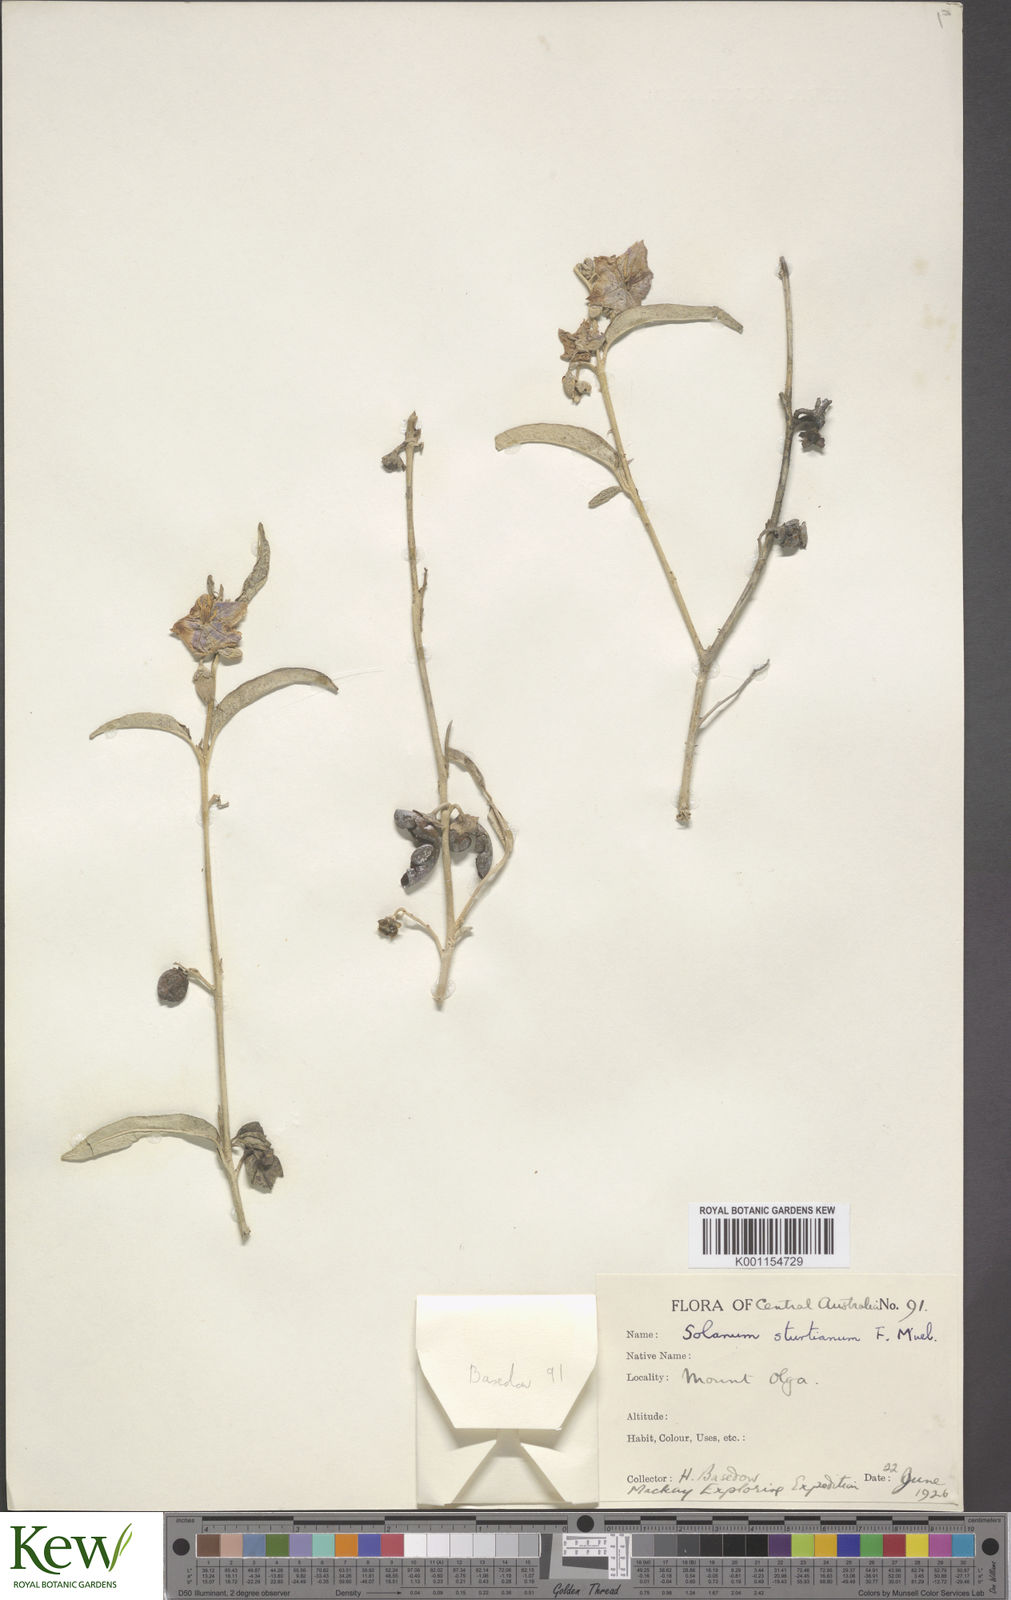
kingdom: Plantae
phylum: Tracheophyta
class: Magnoliopsida
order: Solanales
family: Solanaceae
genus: Solanum
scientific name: Solanum sturtianum
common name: Thargomindah nightshade
